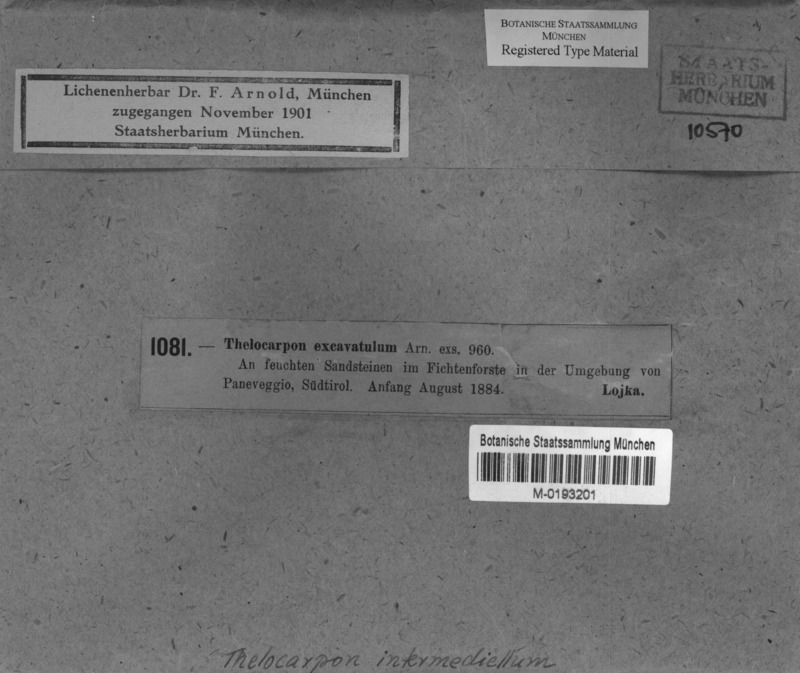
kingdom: Fungi
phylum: Ascomycota
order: Thelocarpales
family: Thelocarpaceae
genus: Thelocarpon
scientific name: Thelocarpon
